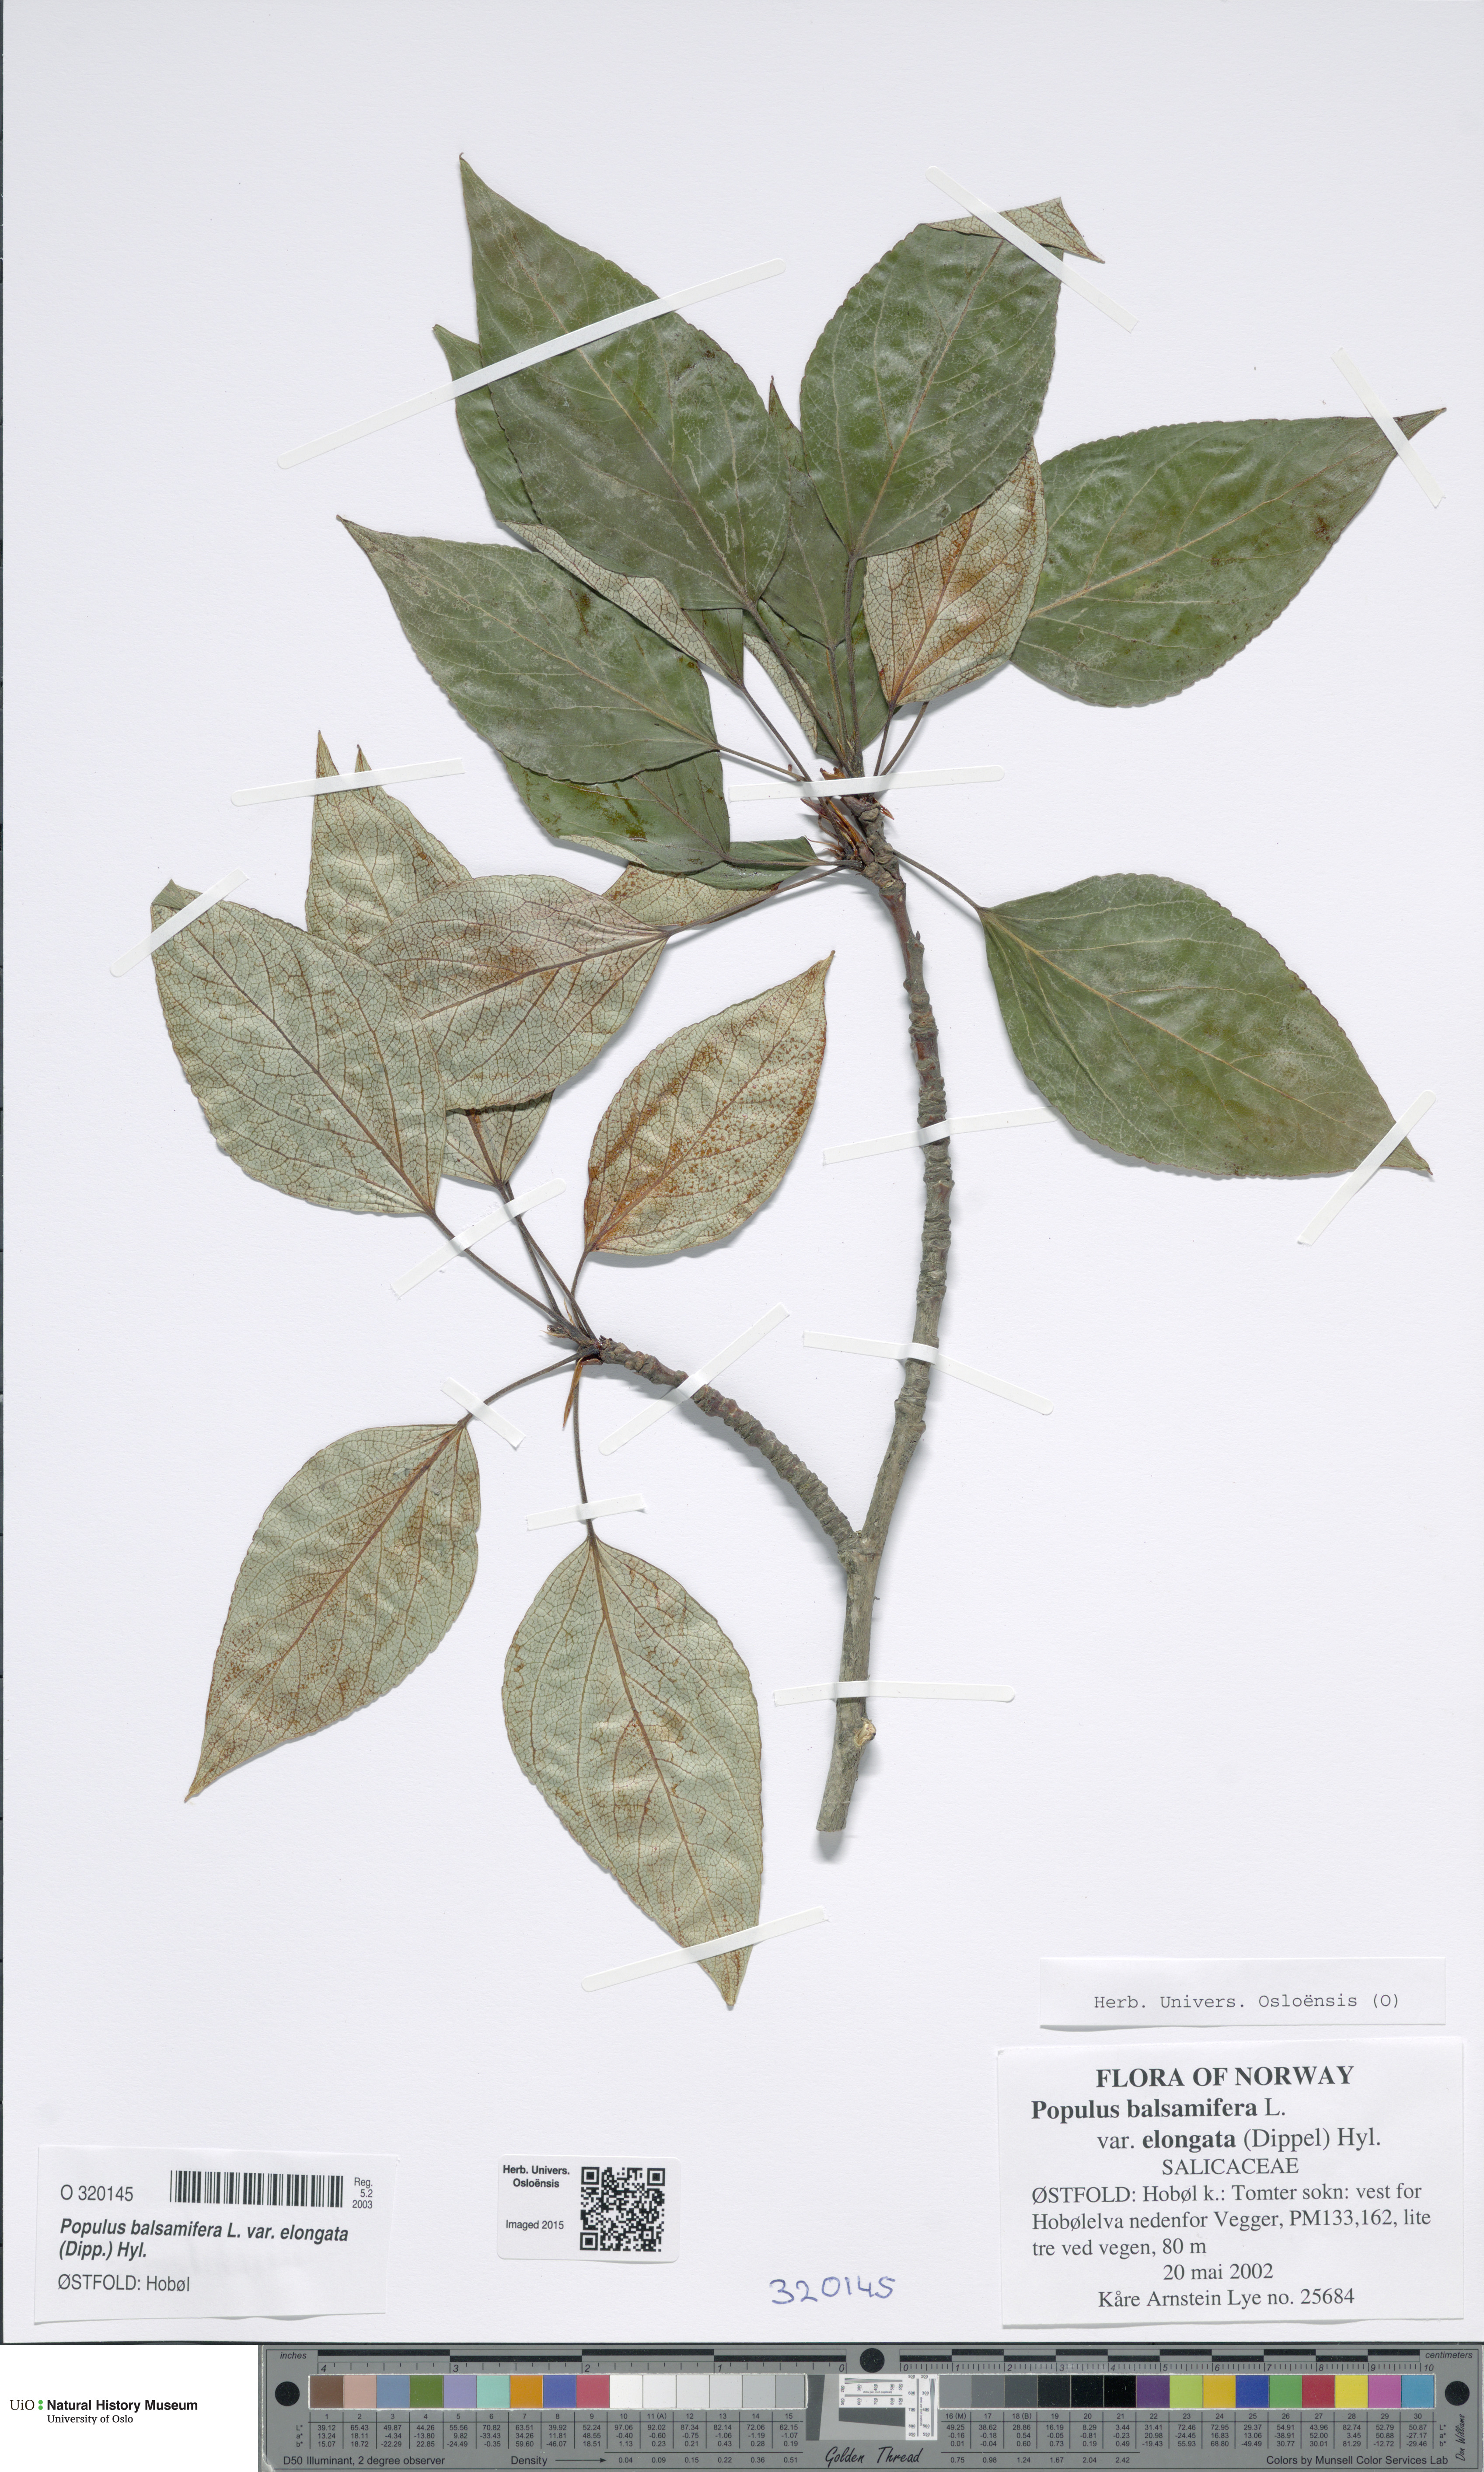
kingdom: Plantae
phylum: Tracheophyta
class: Magnoliopsida
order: Malpighiales
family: Salicaceae
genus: Populus
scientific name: Populus balsamifera
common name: Balsam poplar
